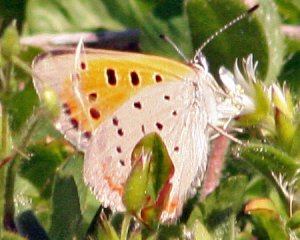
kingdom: Animalia
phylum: Arthropoda
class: Insecta
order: Lepidoptera
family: Lycaenidae
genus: Lycaena
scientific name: Lycaena phlaeas
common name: American Copper
